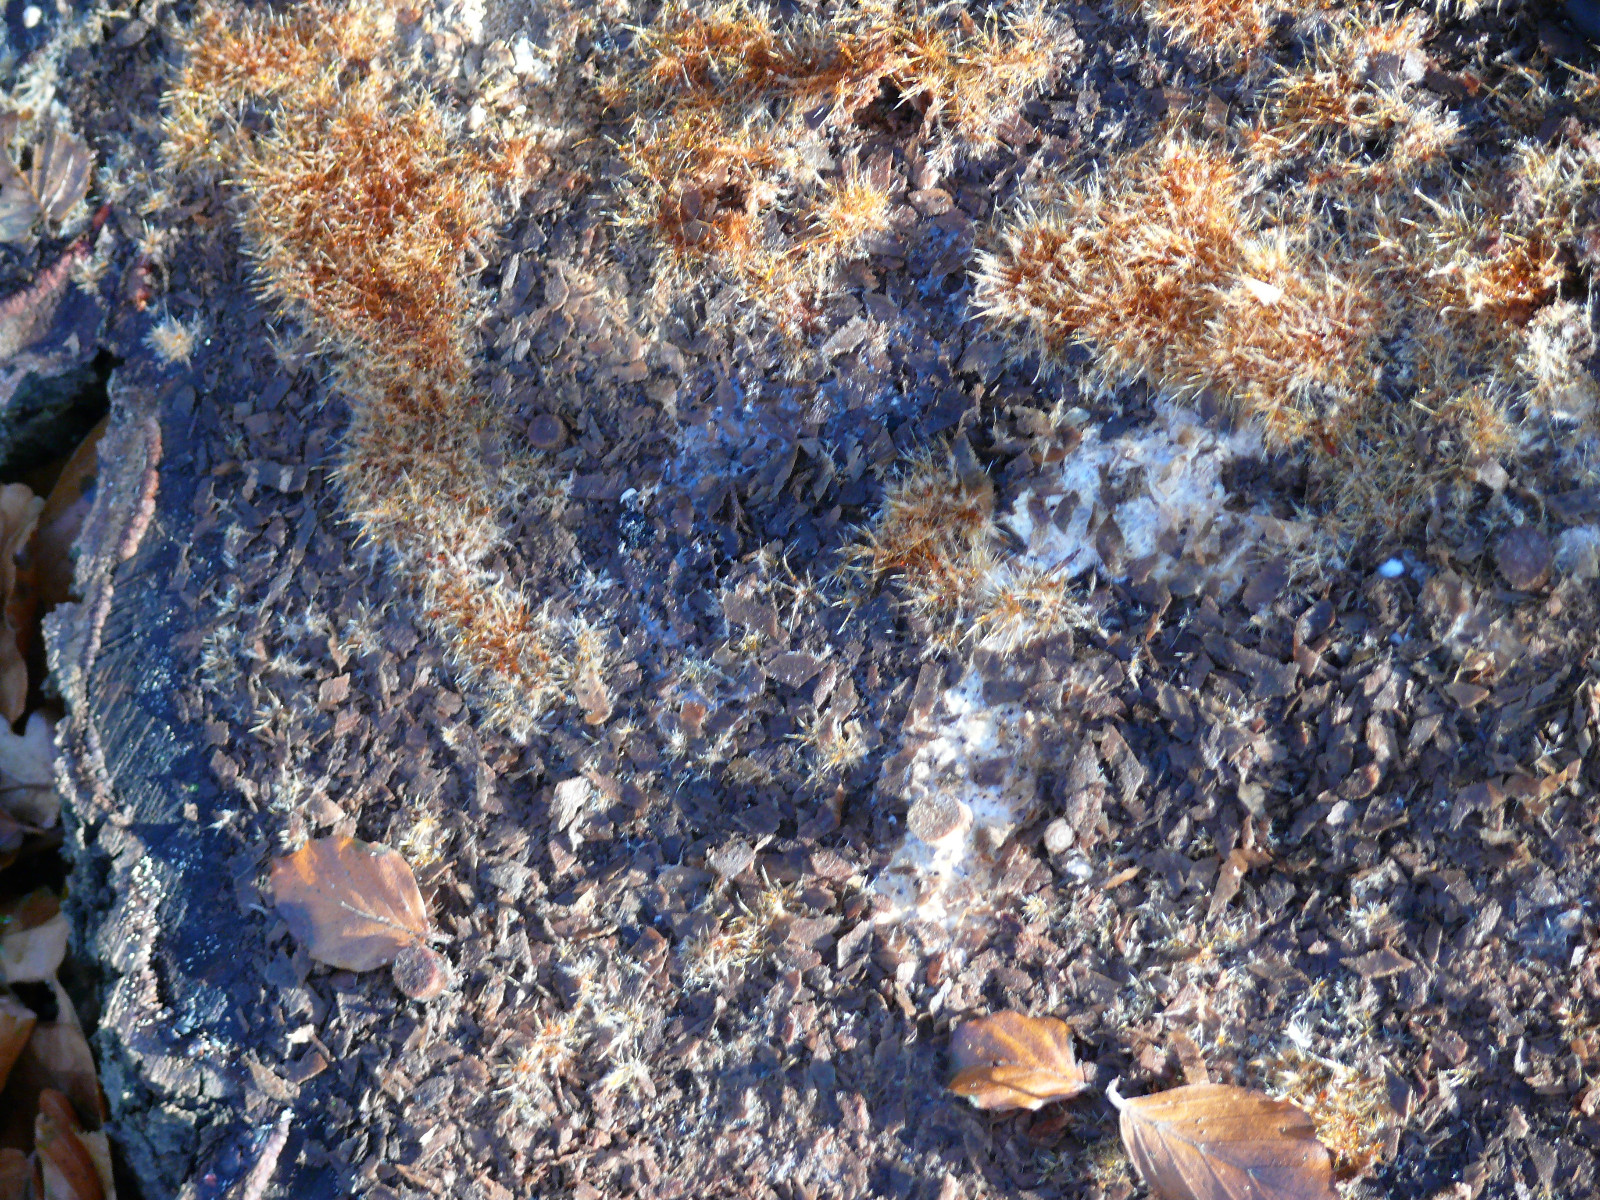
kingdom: Fungi
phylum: Basidiomycota
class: Agaricomycetes
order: Agaricales
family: Psathyrellaceae
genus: Ozonium
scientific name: Ozonium
